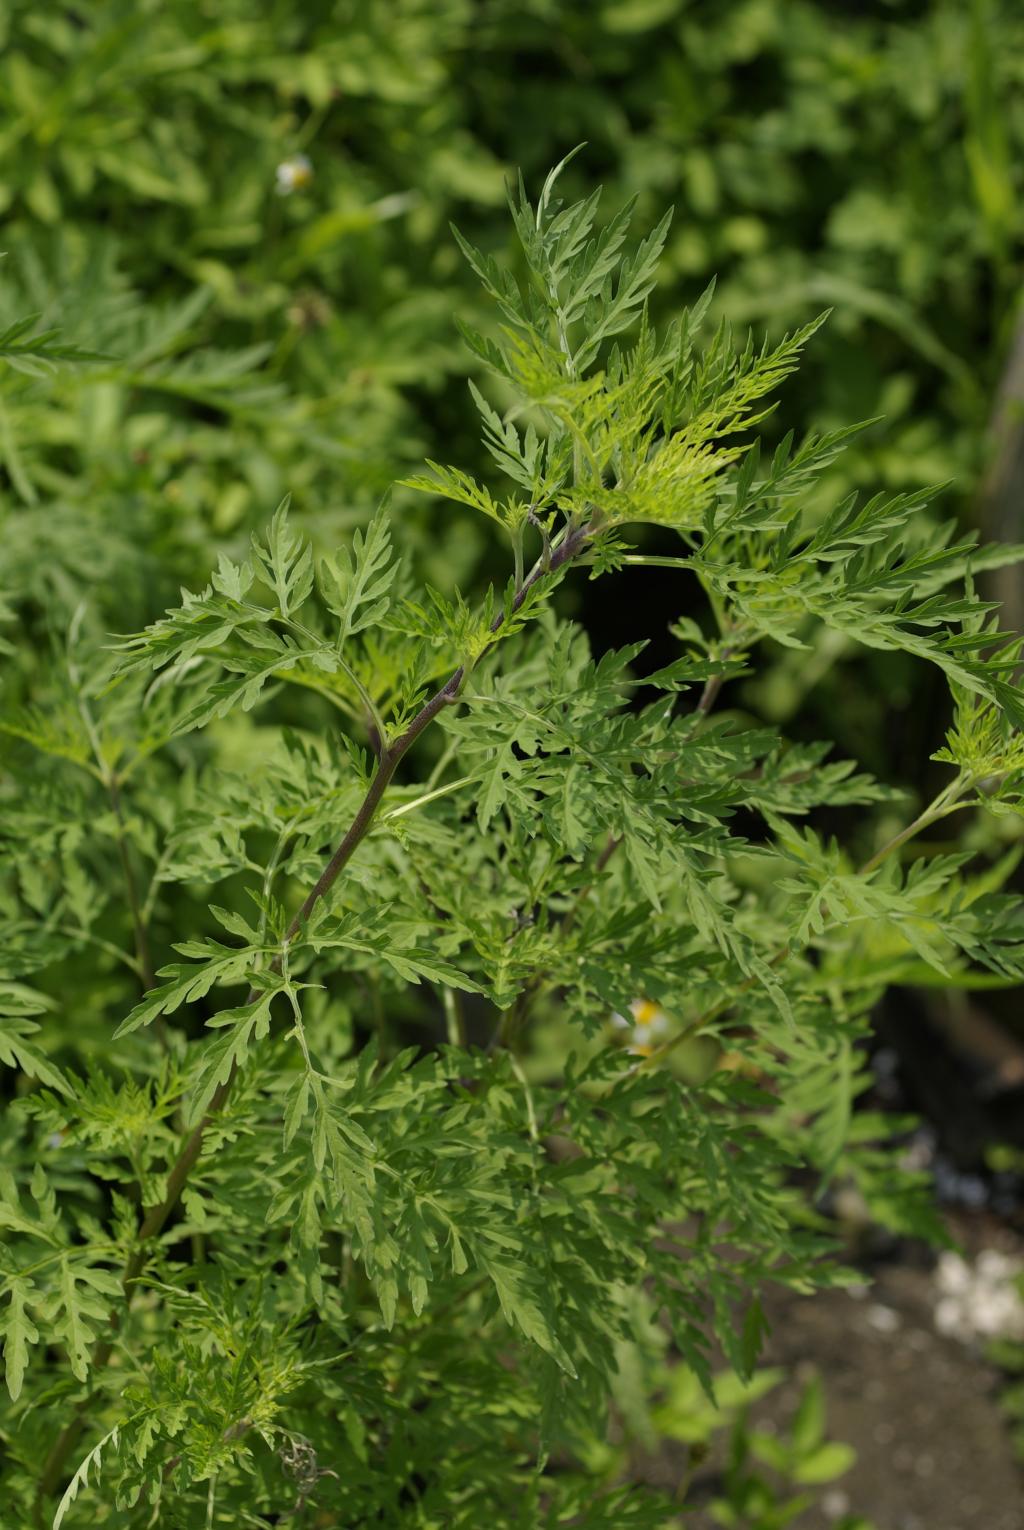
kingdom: Plantae
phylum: Tracheophyta
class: Magnoliopsida
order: Asterales
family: Asteraceae
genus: Ambrosia
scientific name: Ambrosia artemisiifolia
